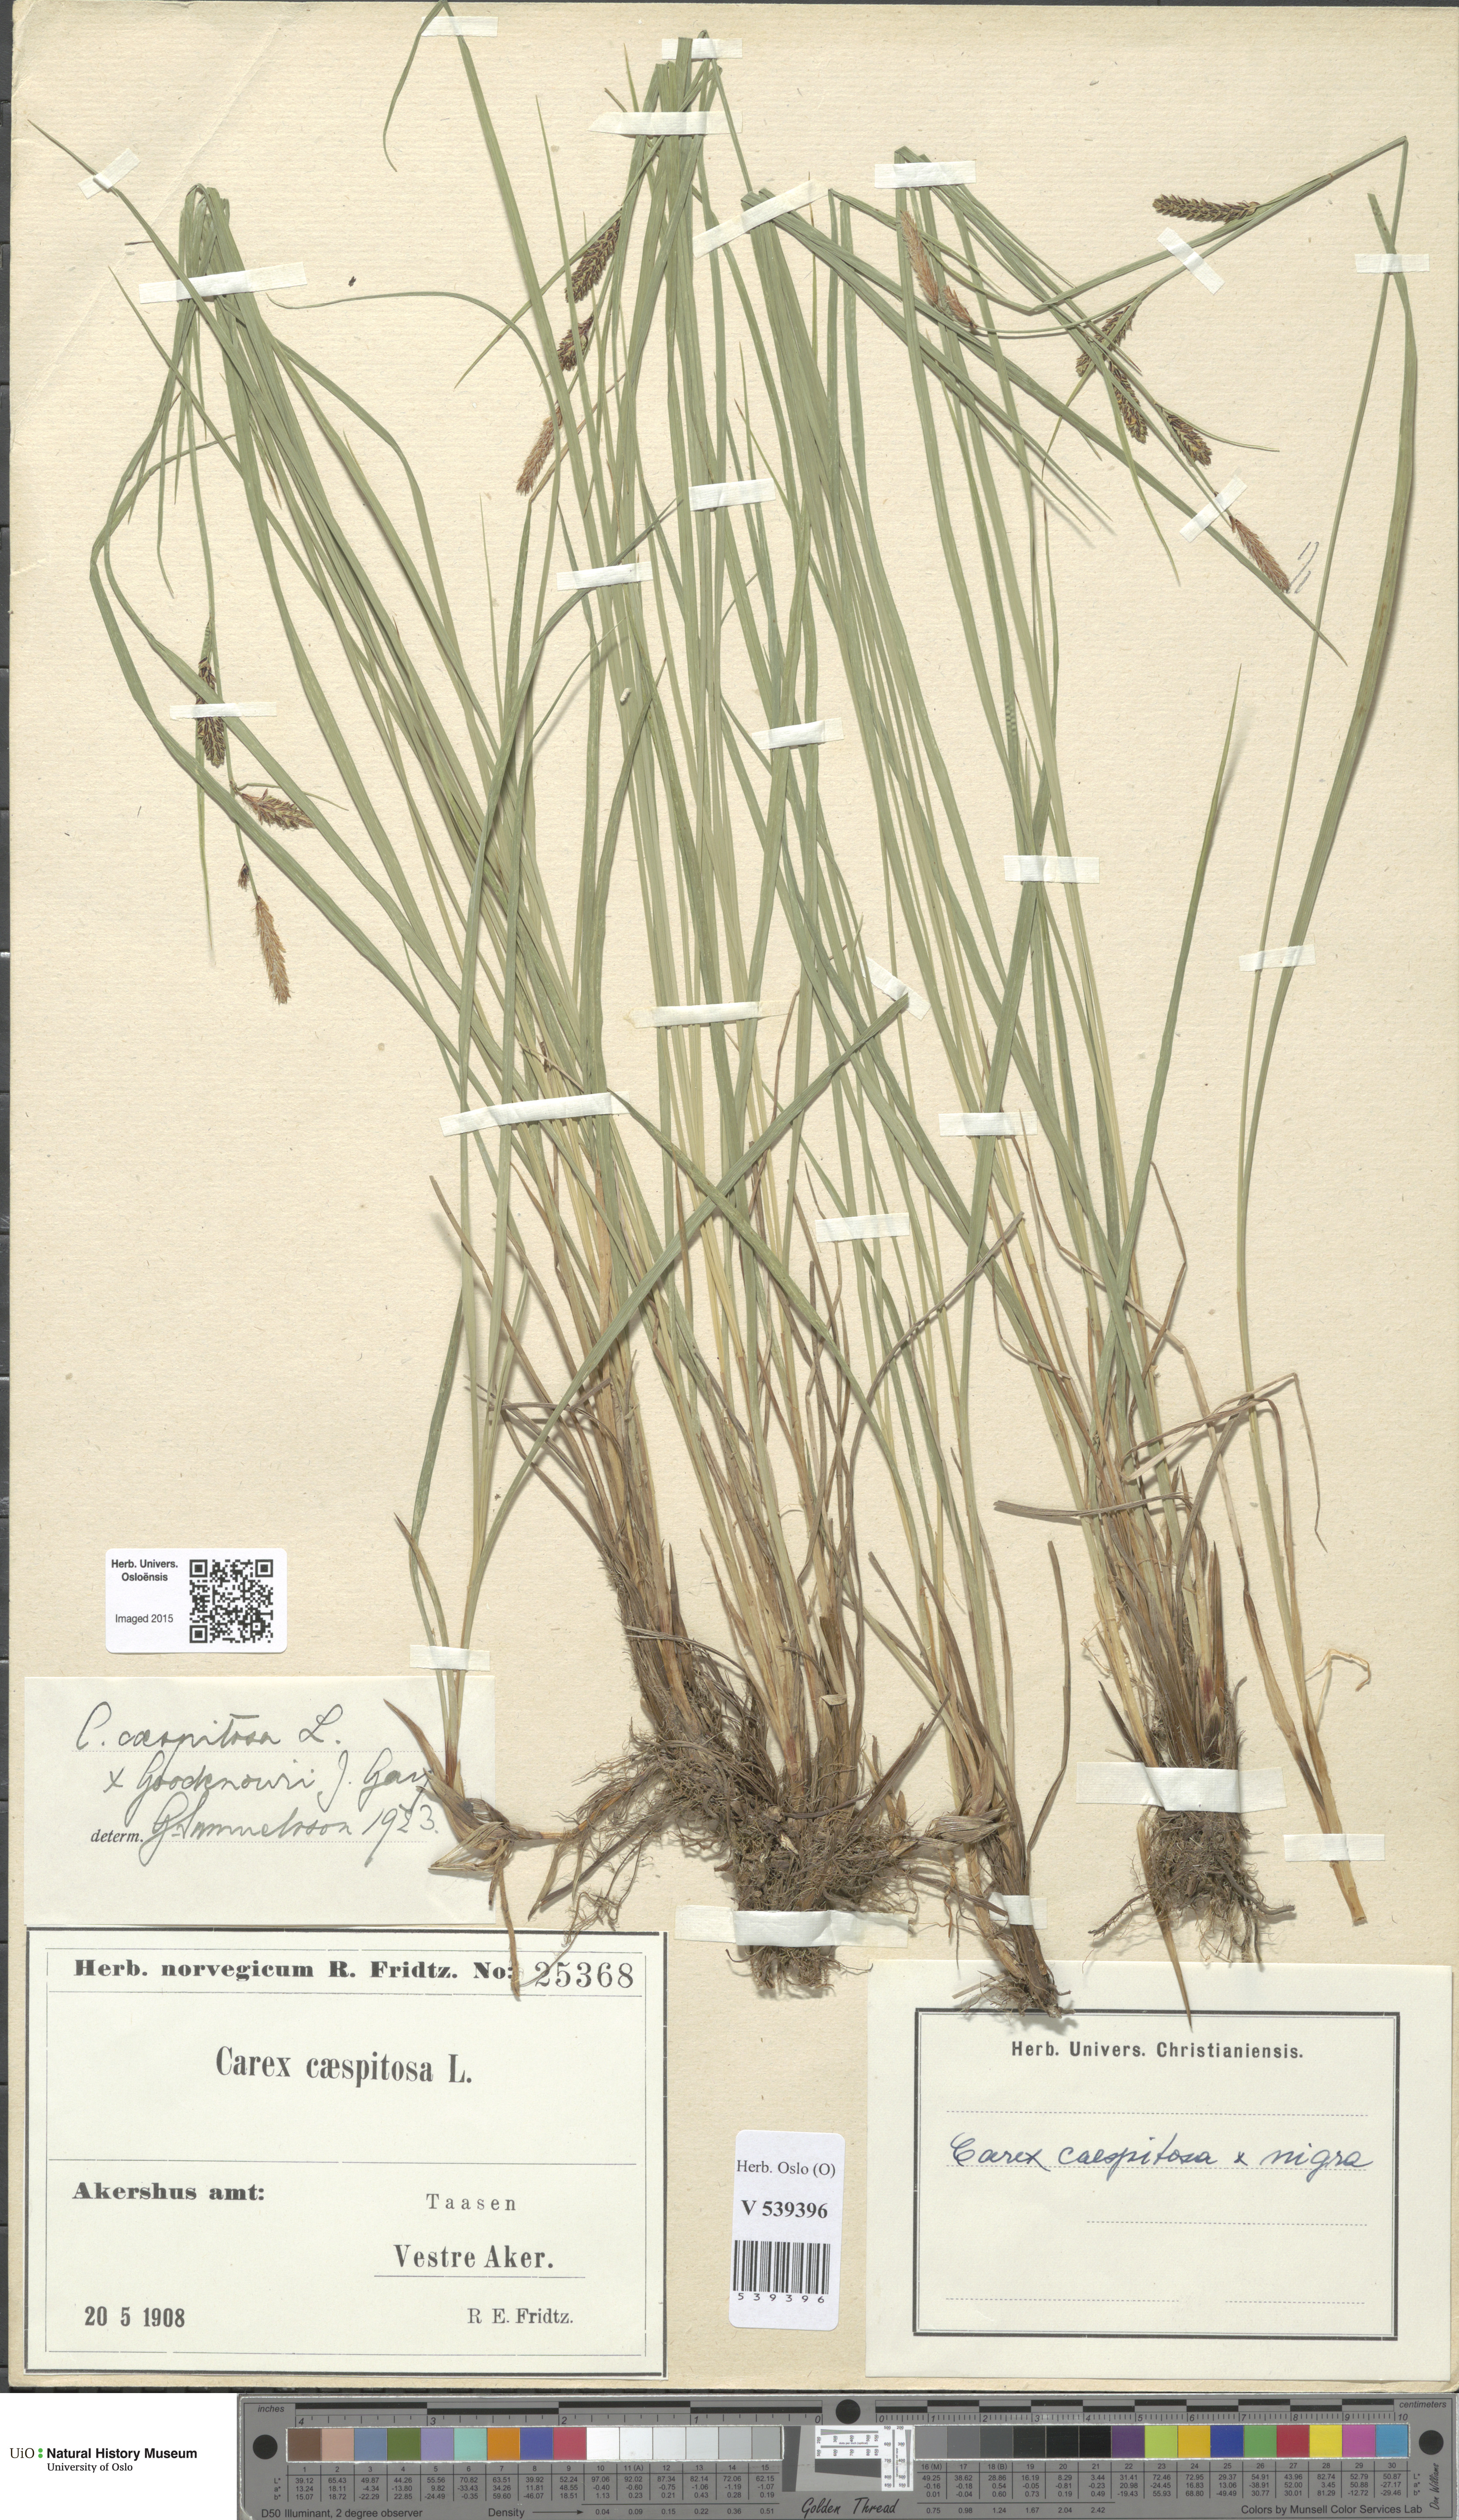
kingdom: Plantae
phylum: Tracheophyta
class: Liliopsida
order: Poales
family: Cyperaceae
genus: Carex
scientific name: Carex
